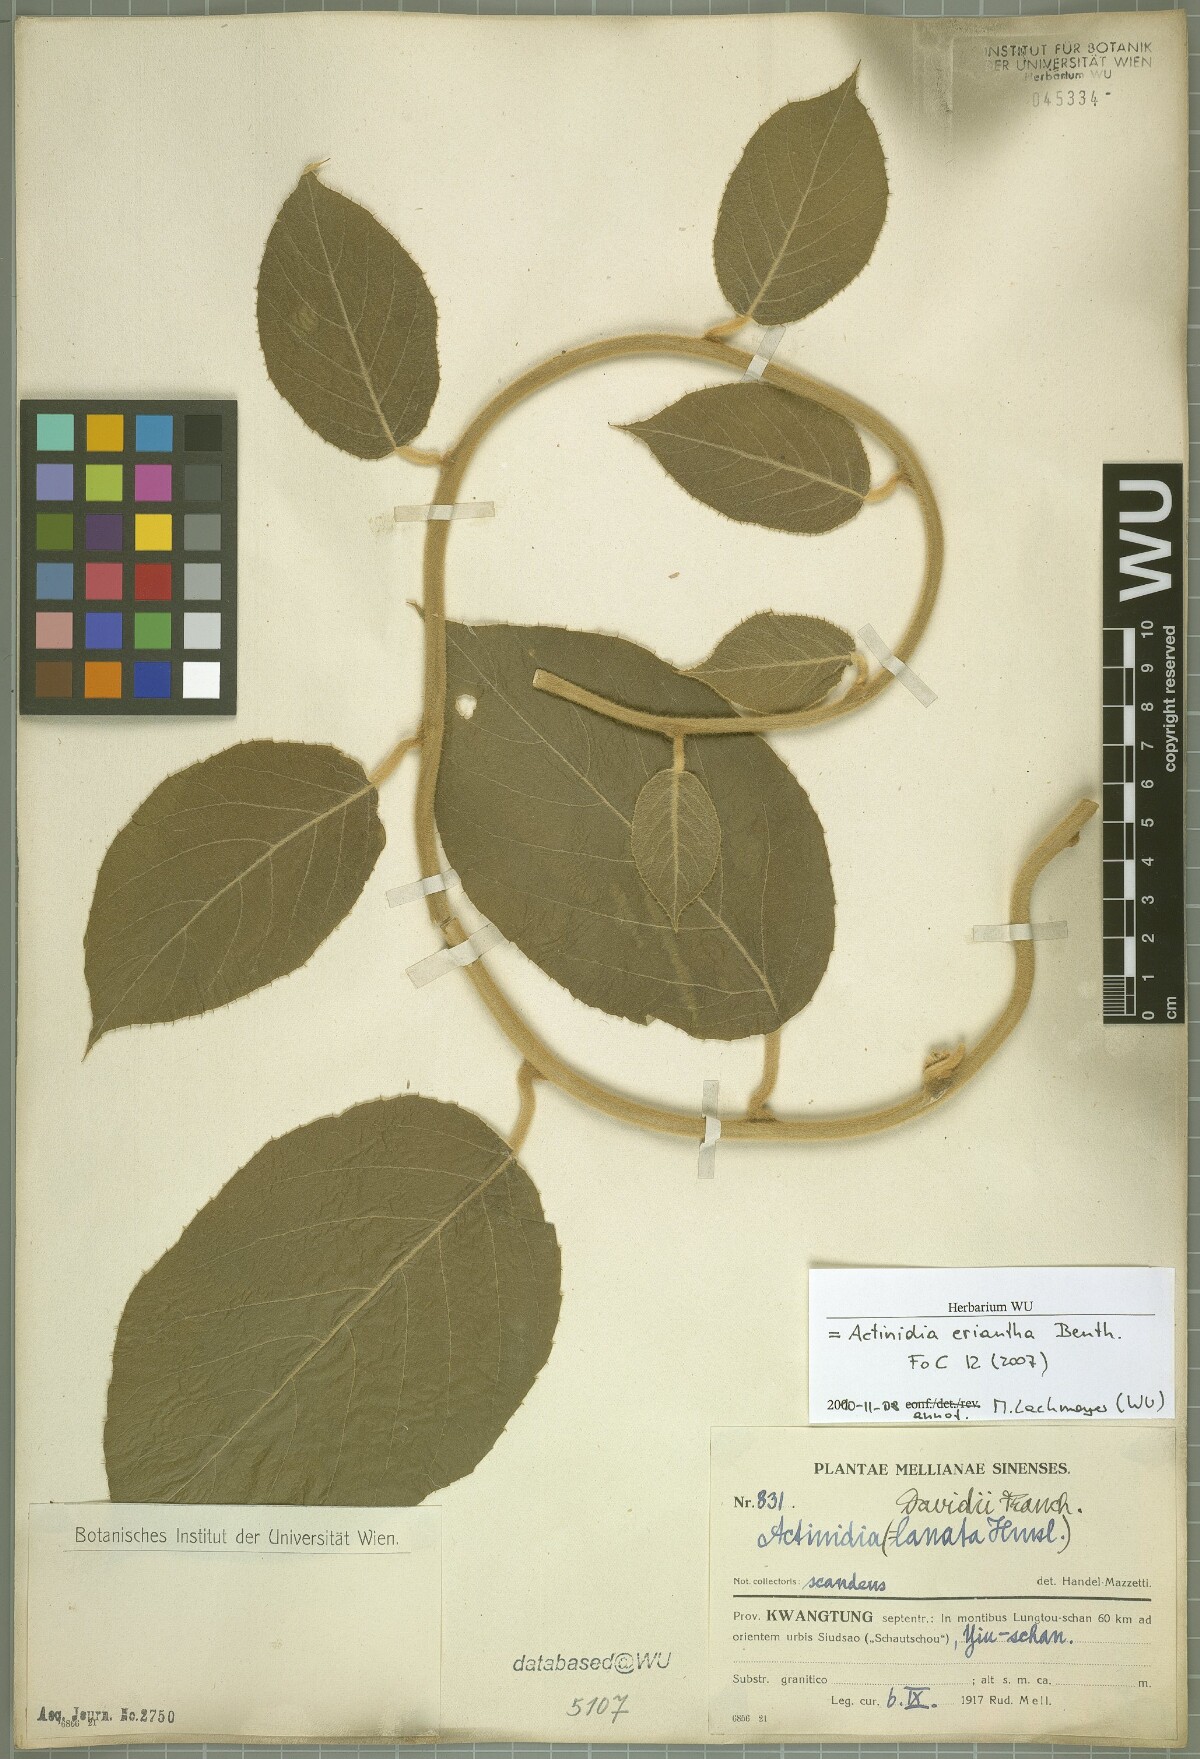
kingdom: Plantae
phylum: Tracheophyta
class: Magnoliopsida
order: Ericales
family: Actinidiaceae
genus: Actinidia
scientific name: Actinidia eriantha
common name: Velvetvine
